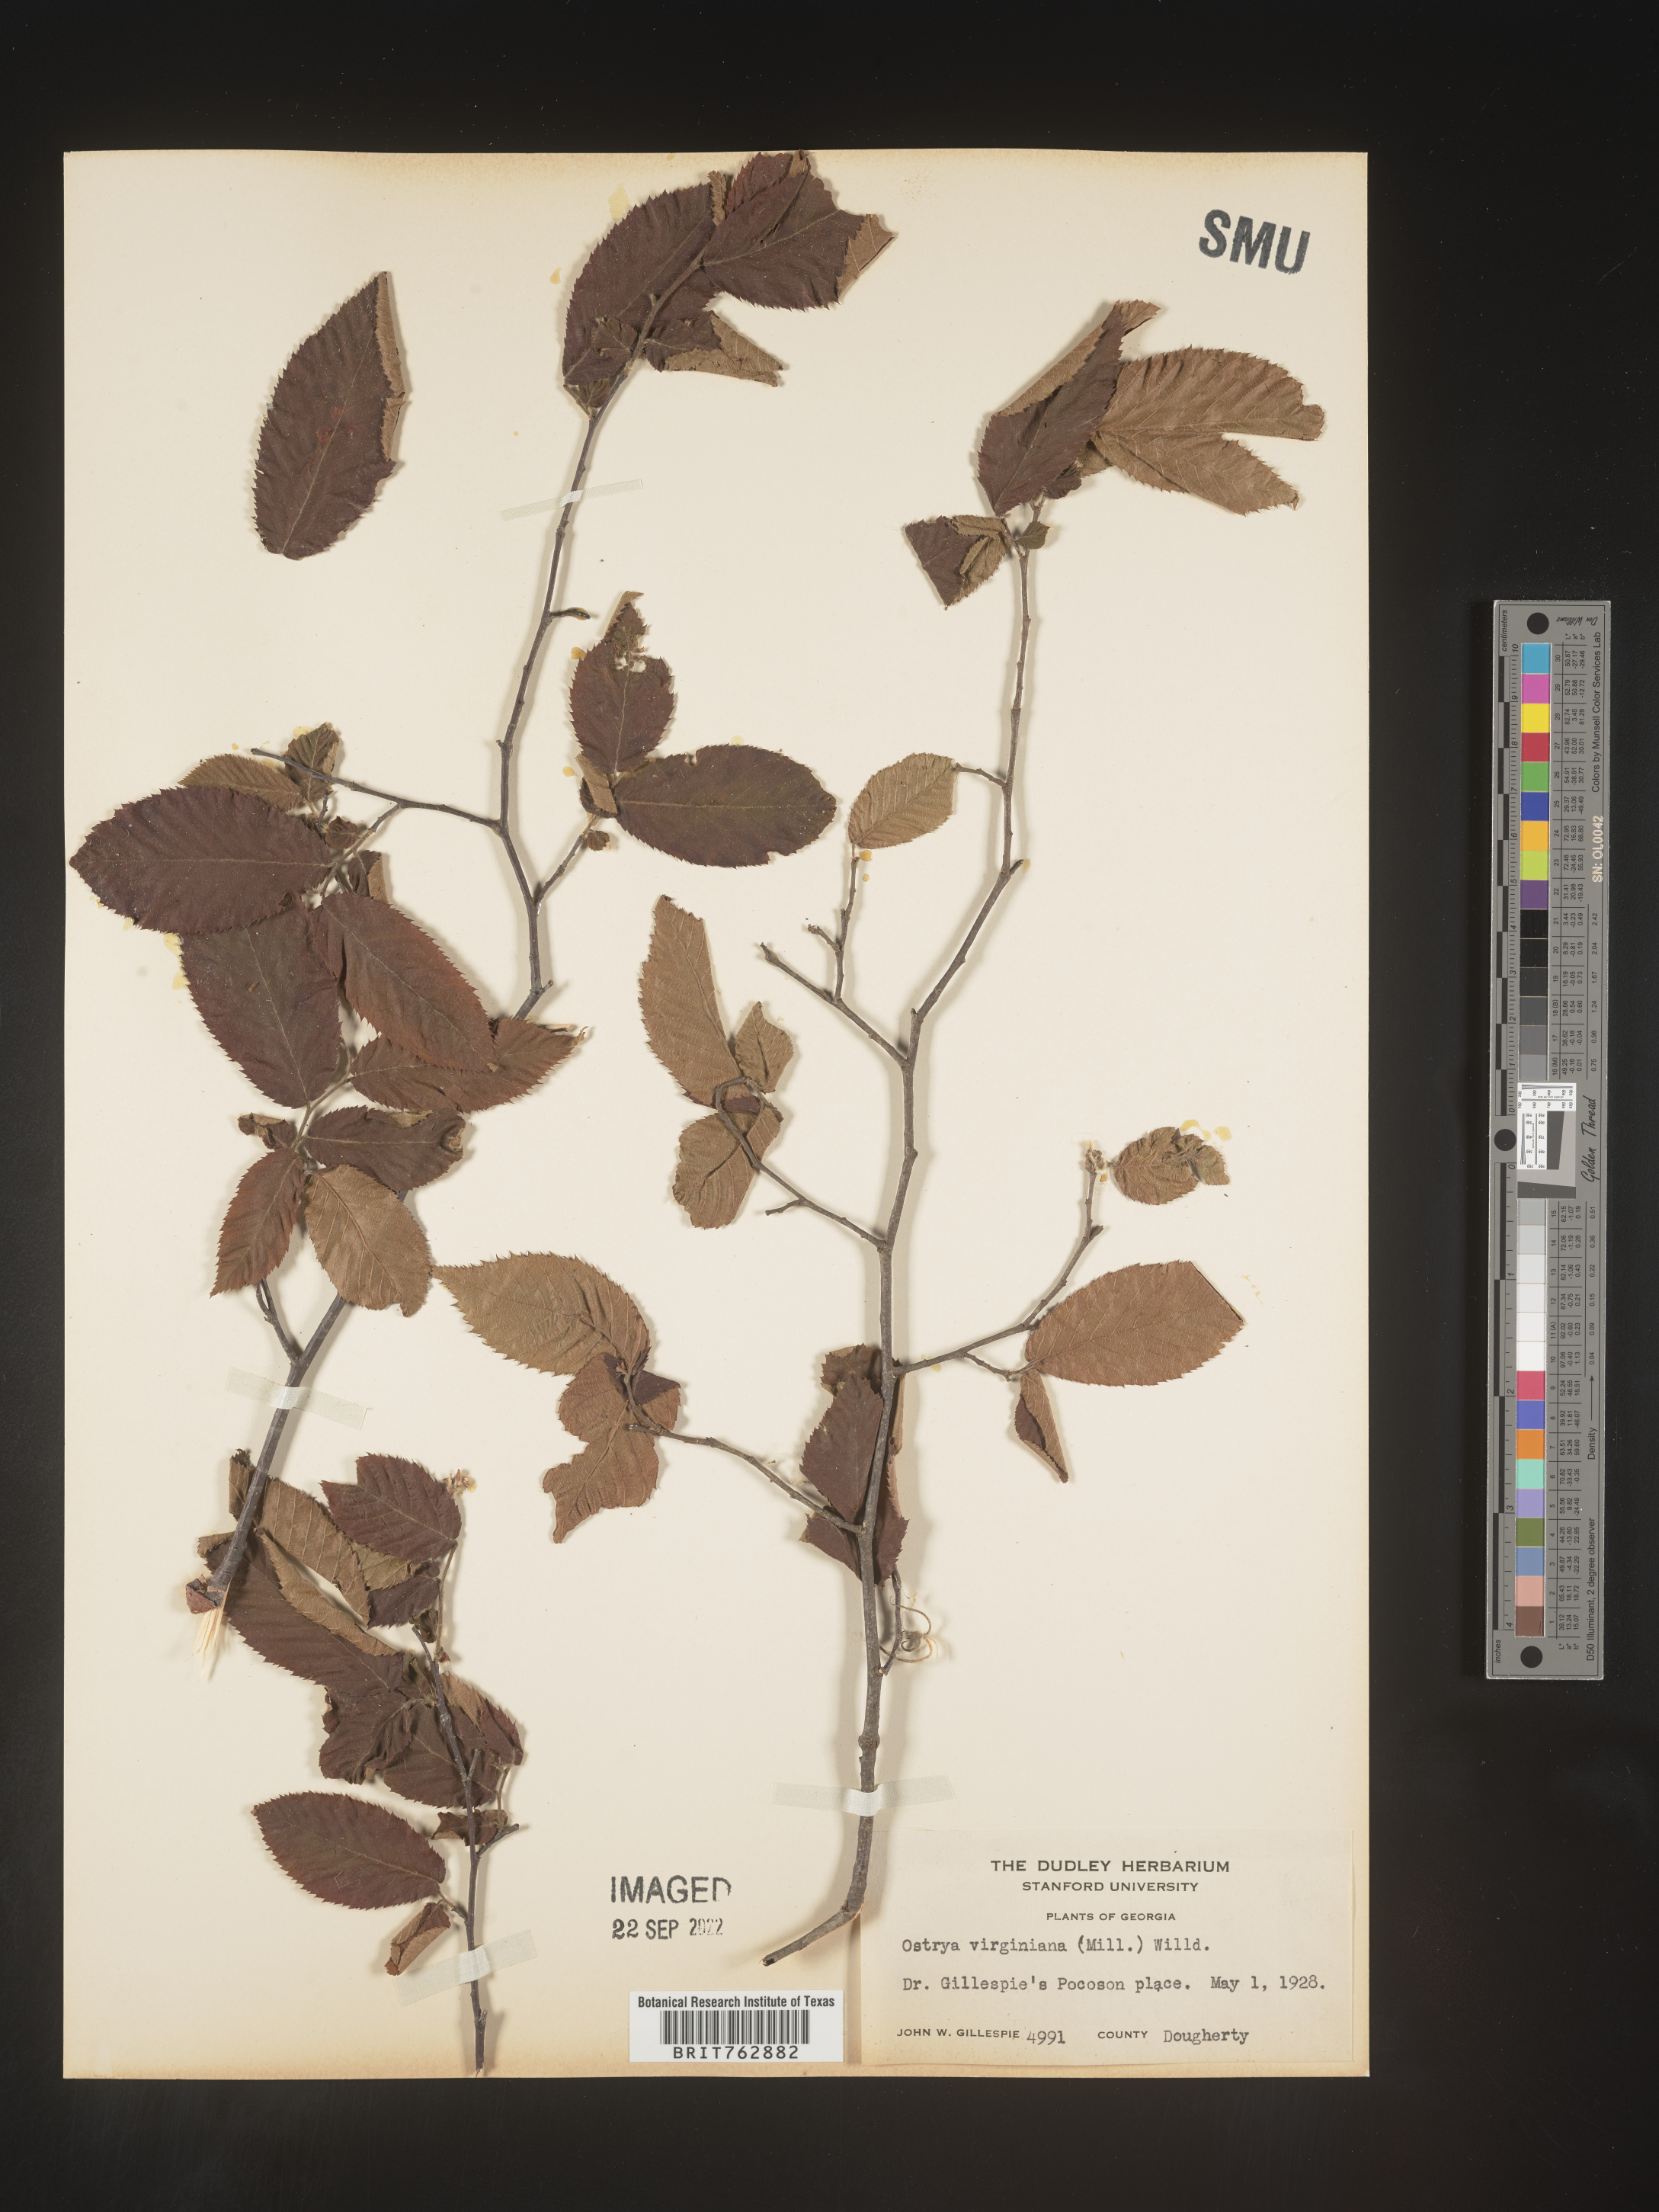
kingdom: Plantae
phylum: Tracheophyta
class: Magnoliopsida
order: Fagales
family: Betulaceae
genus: Ostrya
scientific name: Ostrya virginiana
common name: Ironwood
